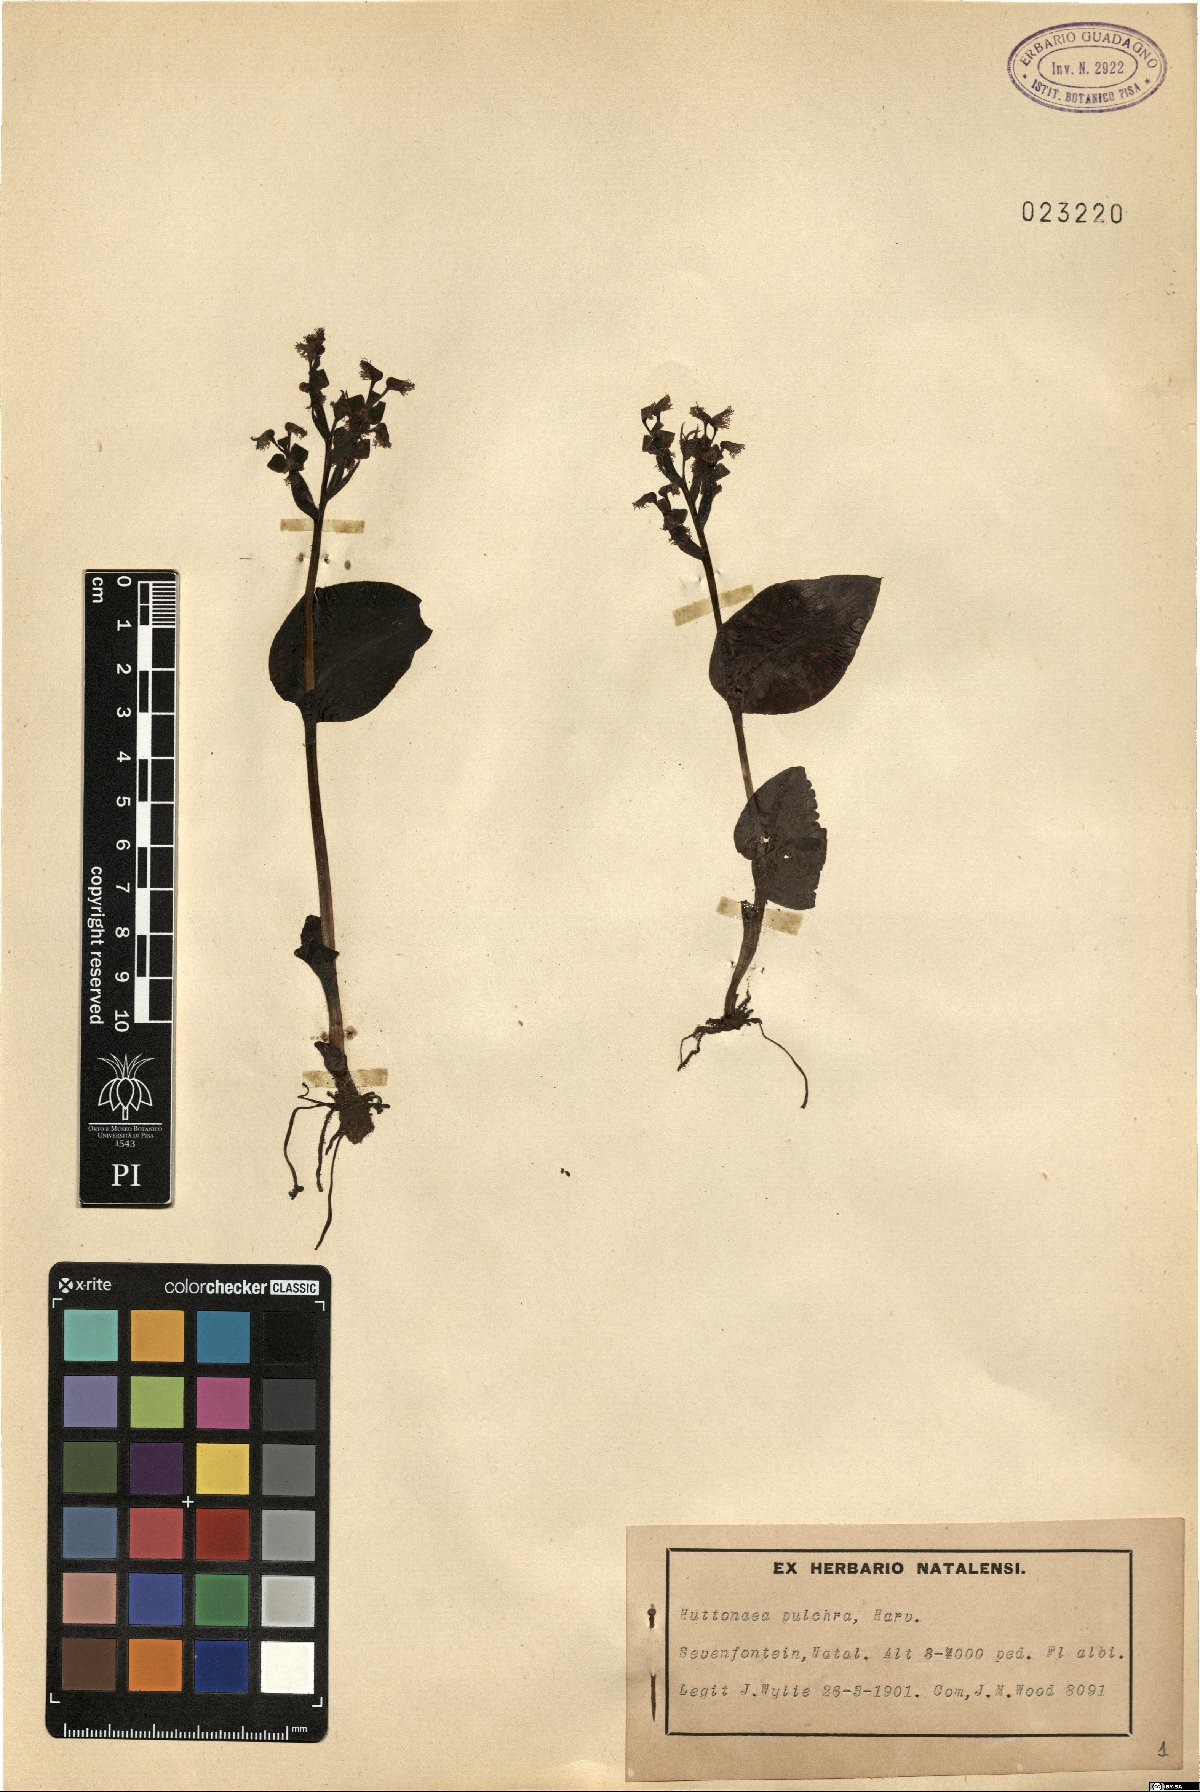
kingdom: Plantae
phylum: Tracheophyta
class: Liliopsida
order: Asparagales
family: Orchidaceae
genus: Huttonaea
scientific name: Huttonaea pulchra
